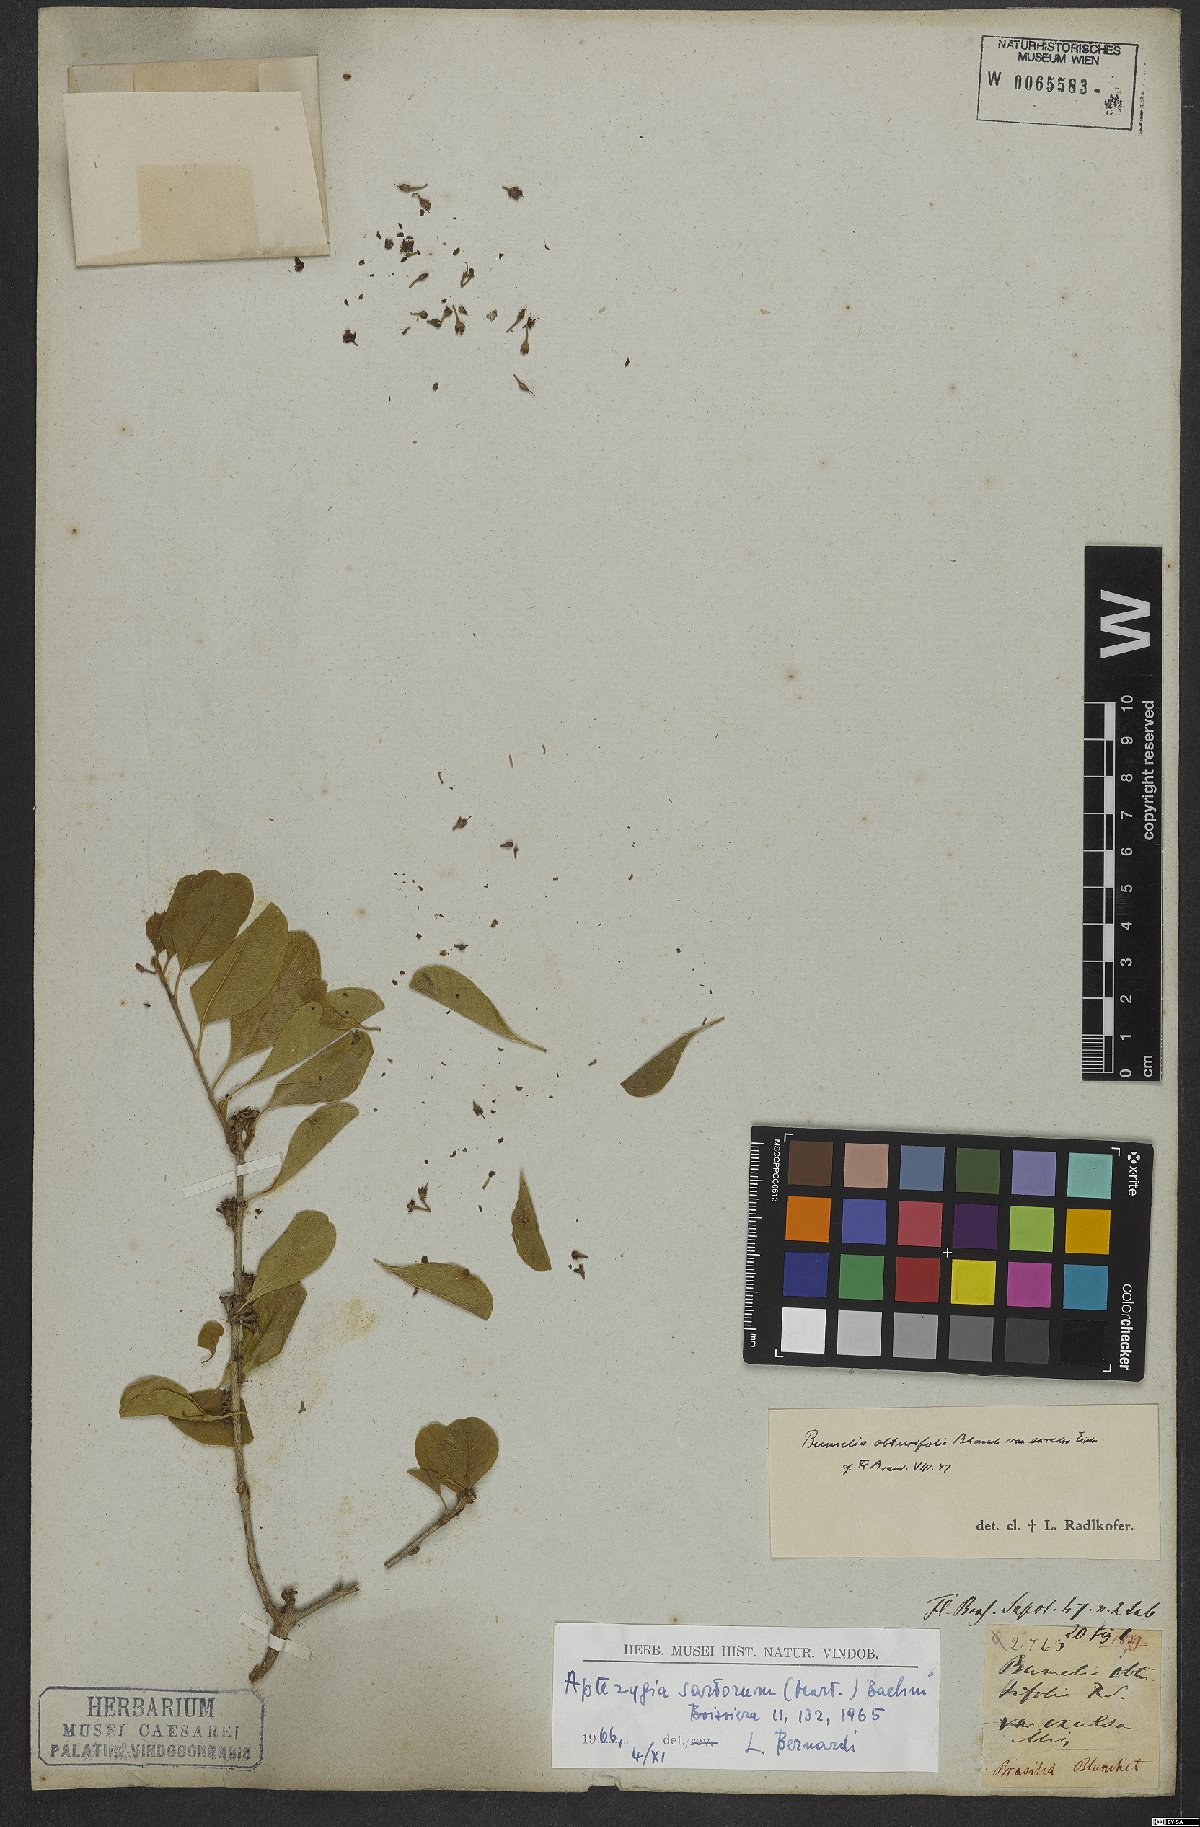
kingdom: Plantae
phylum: Tracheophyta
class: Magnoliopsida
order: Ericales
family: Sapotaceae
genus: Sideroxylon
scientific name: Sideroxylon obtusifolium
